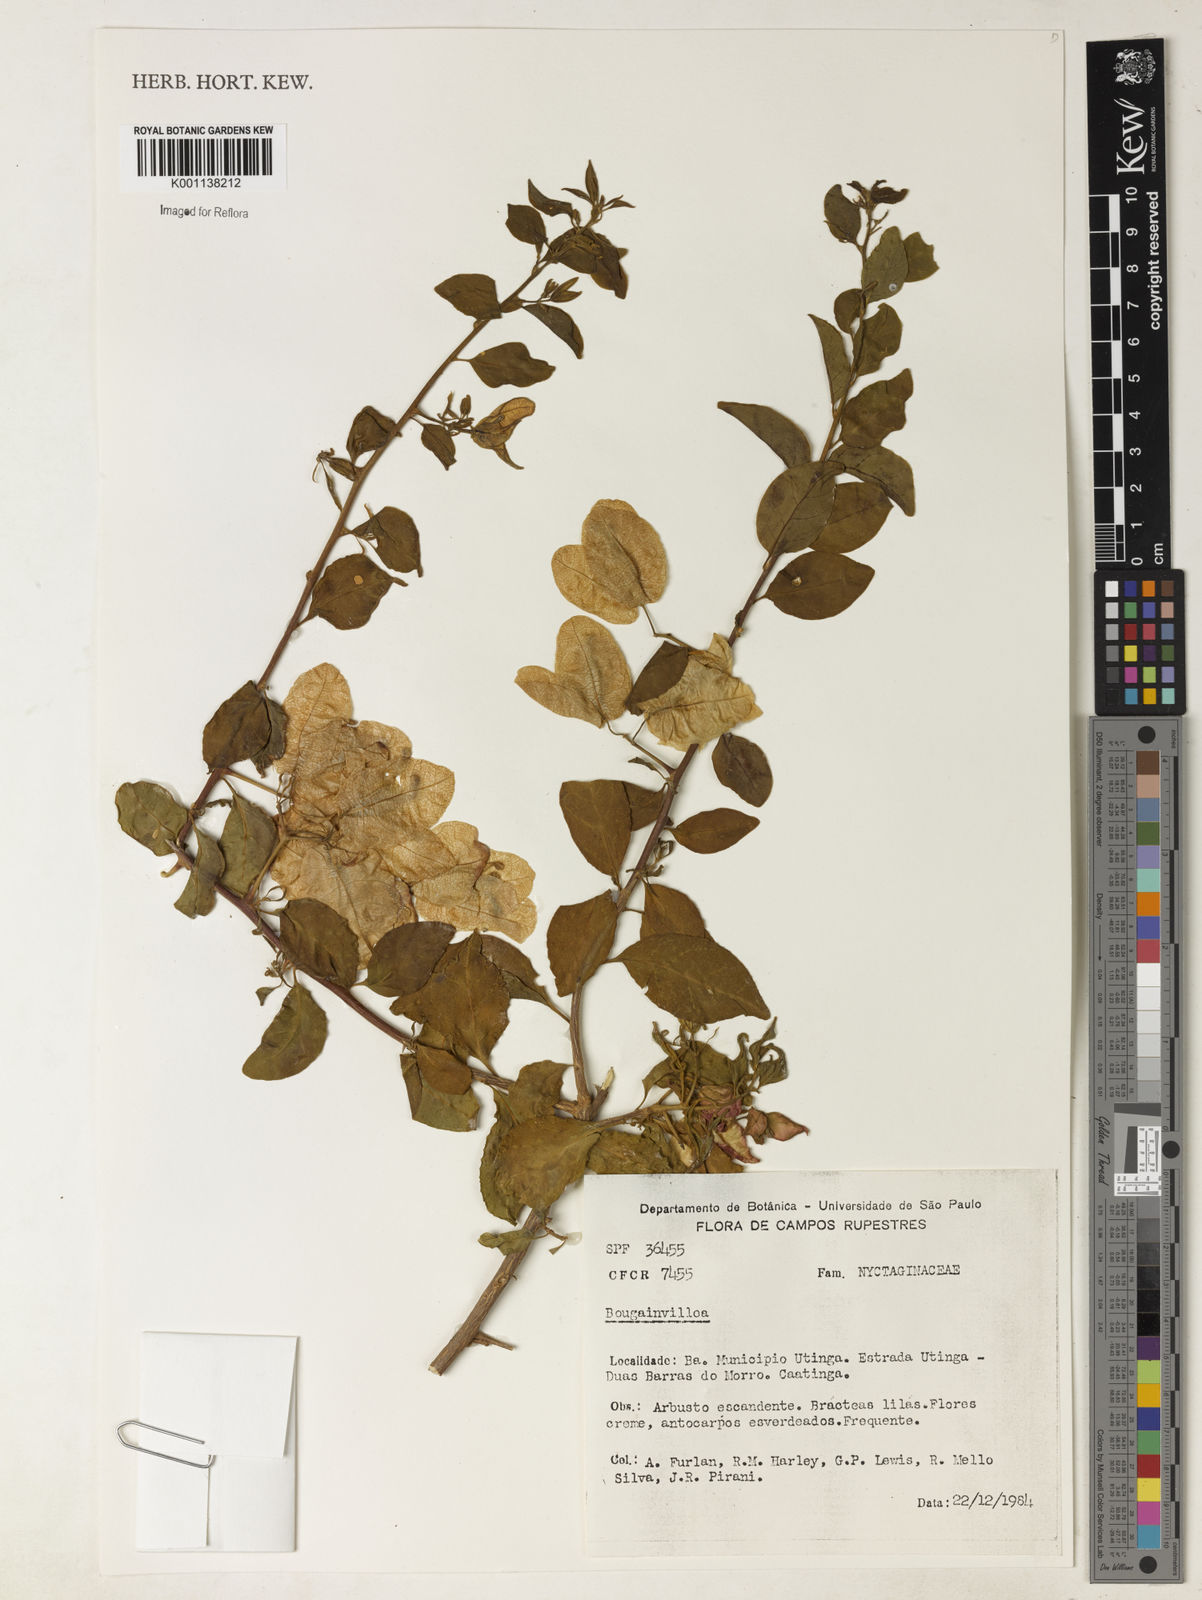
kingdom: Plantae
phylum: Tracheophyta
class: Magnoliopsida
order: Caryophyllales
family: Nyctaginaceae
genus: Bougainvillea
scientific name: Bougainvillea
